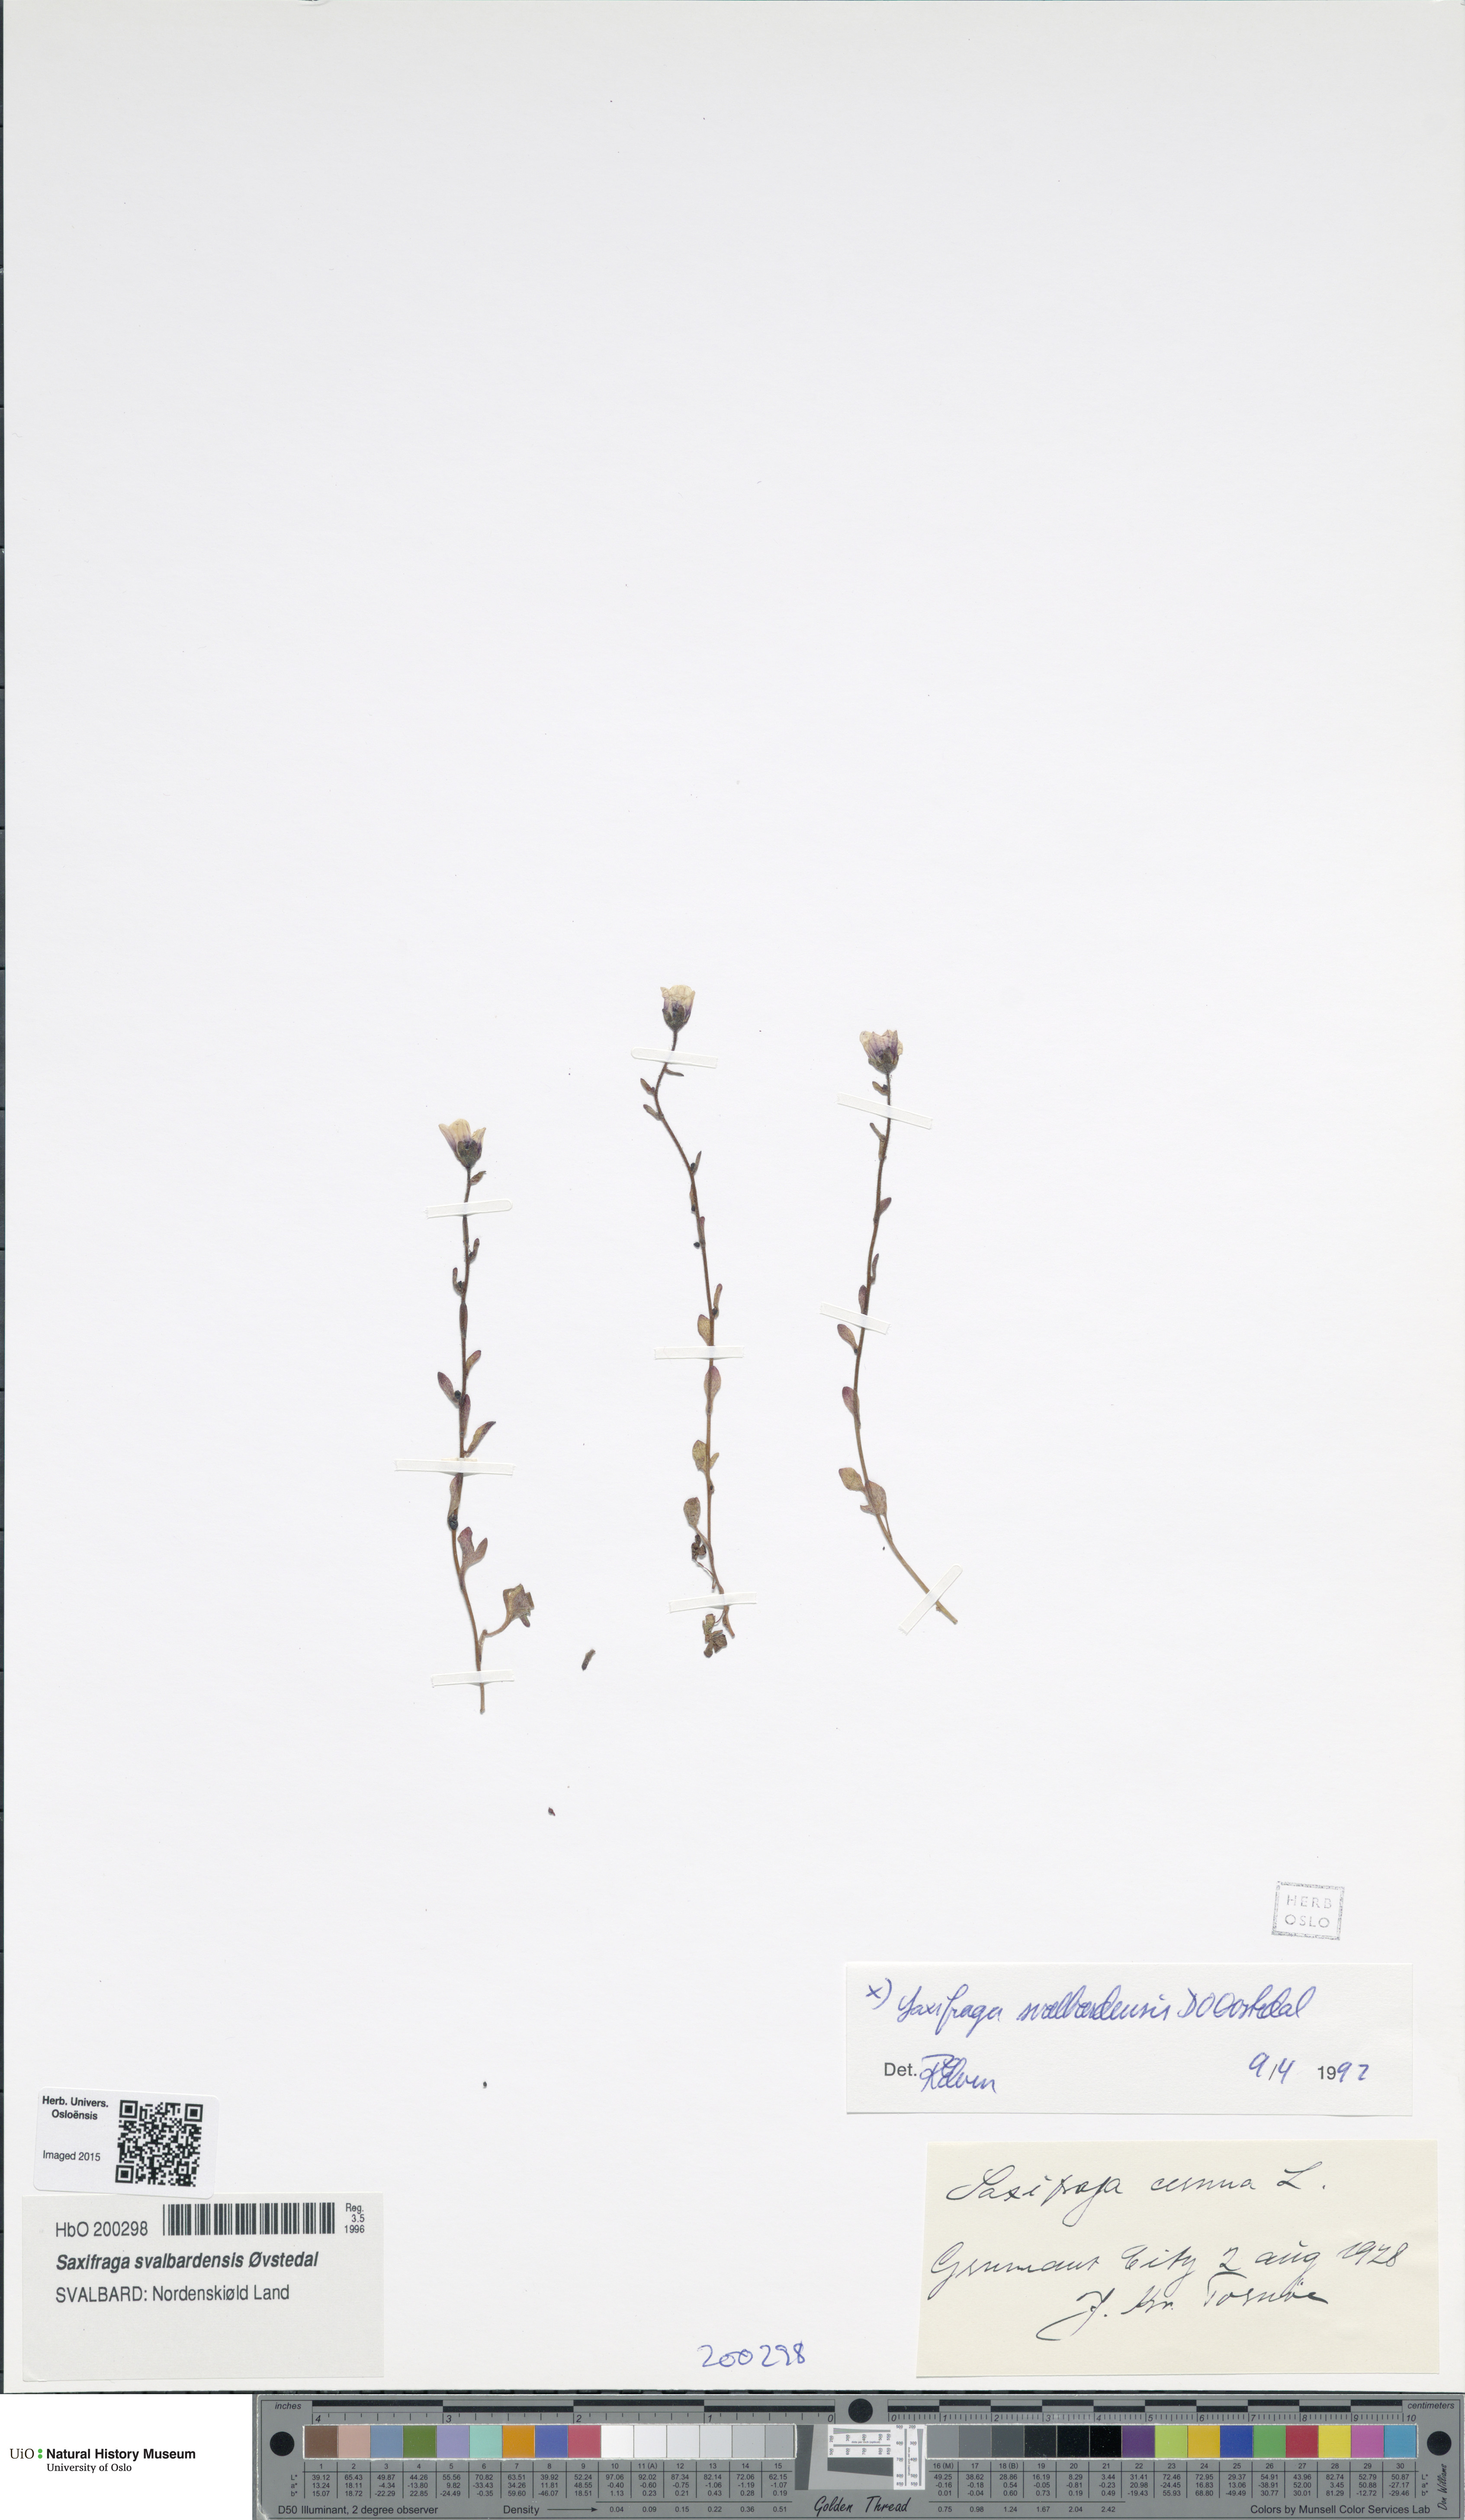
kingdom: Plantae
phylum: Tracheophyta
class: Magnoliopsida
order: Saxifragales
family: Saxifragaceae
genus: Saxifraga
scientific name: Saxifraga svalbardensis
